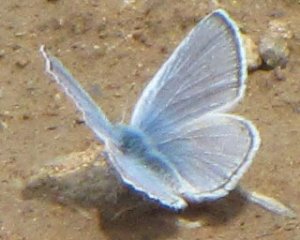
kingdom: Animalia
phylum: Arthropoda
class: Insecta
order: Lepidoptera
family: Lycaenidae
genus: Icaricia
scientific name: Icaricia icarioides
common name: Boisduval's Blue
